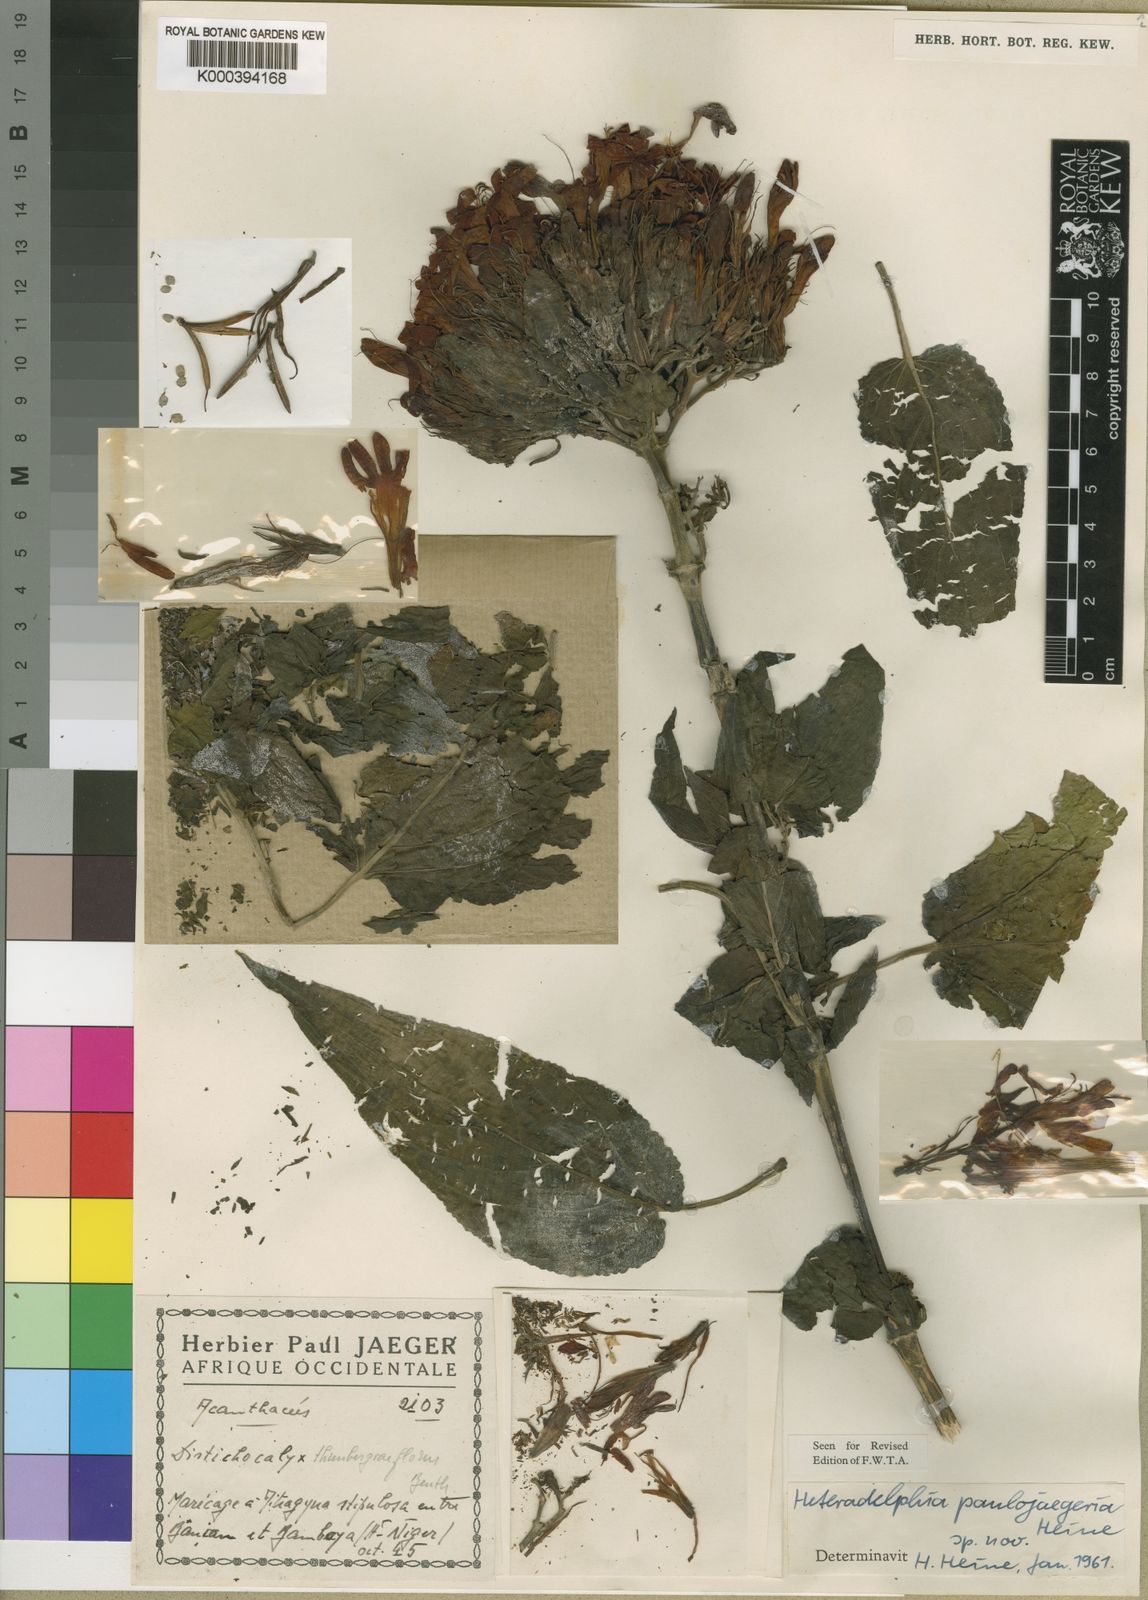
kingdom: Plantae
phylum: Tracheophyta
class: Magnoliopsida
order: Lamiales
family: Acanthaceae
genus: Heteradelphia
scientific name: Heteradelphia paulojaegeria
